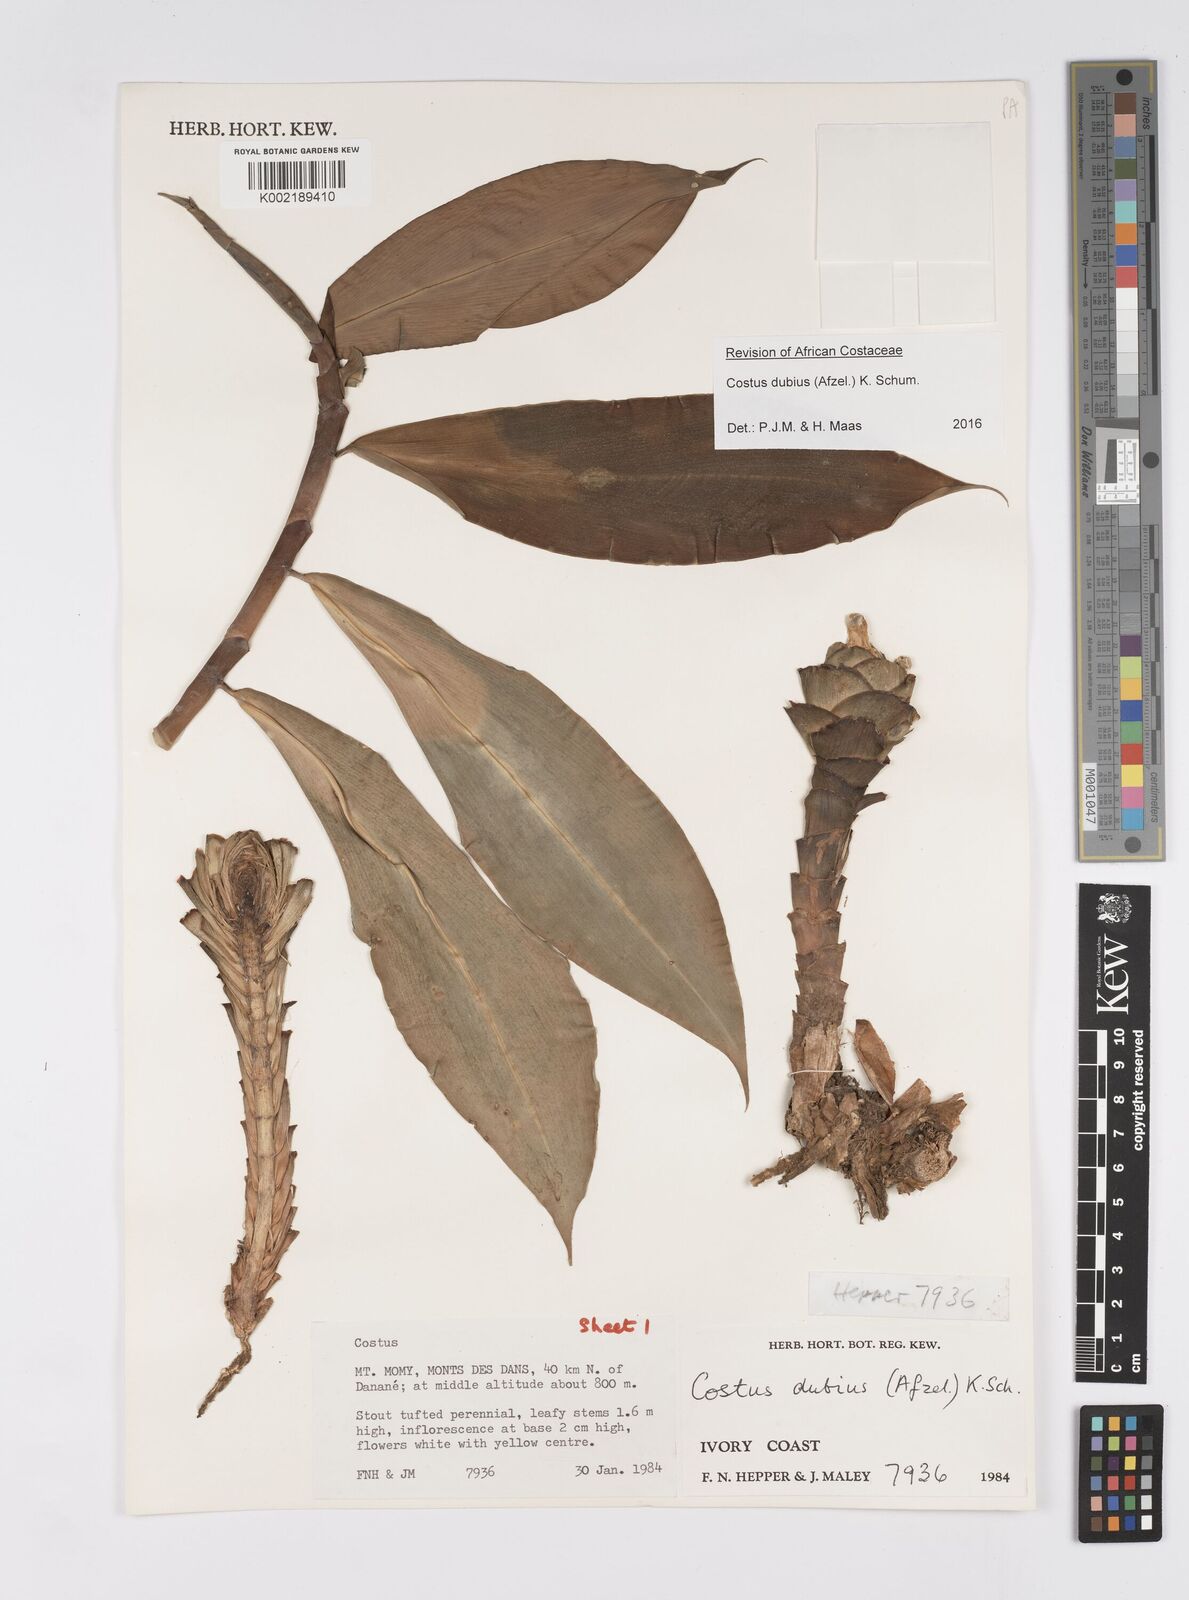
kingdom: Plantae
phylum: Tracheophyta
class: Liliopsida
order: Zingiberales
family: Costaceae
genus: Costus
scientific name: Costus dubius
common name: Costus
